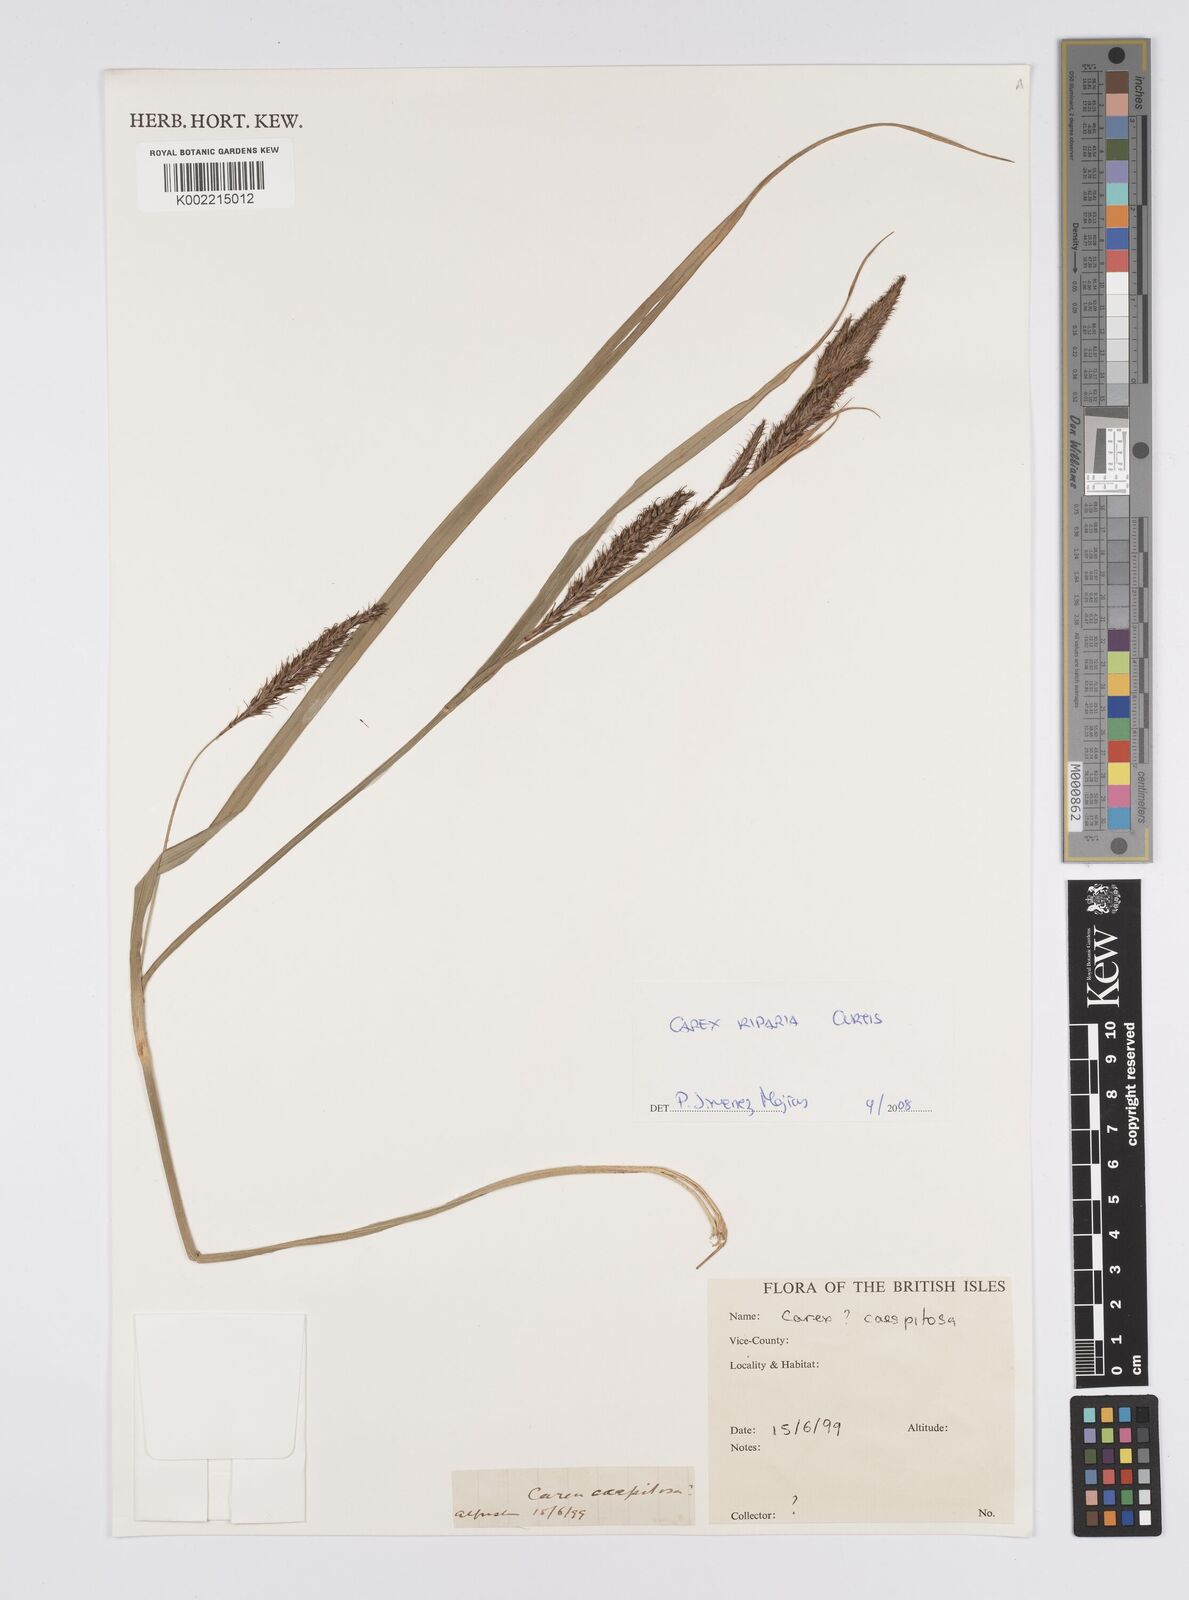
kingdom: Plantae
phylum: Tracheophyta
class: Liliopsida
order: Poales
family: Cyperaceae
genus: Carex
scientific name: Carex riparia
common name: Greater pond-sedge
